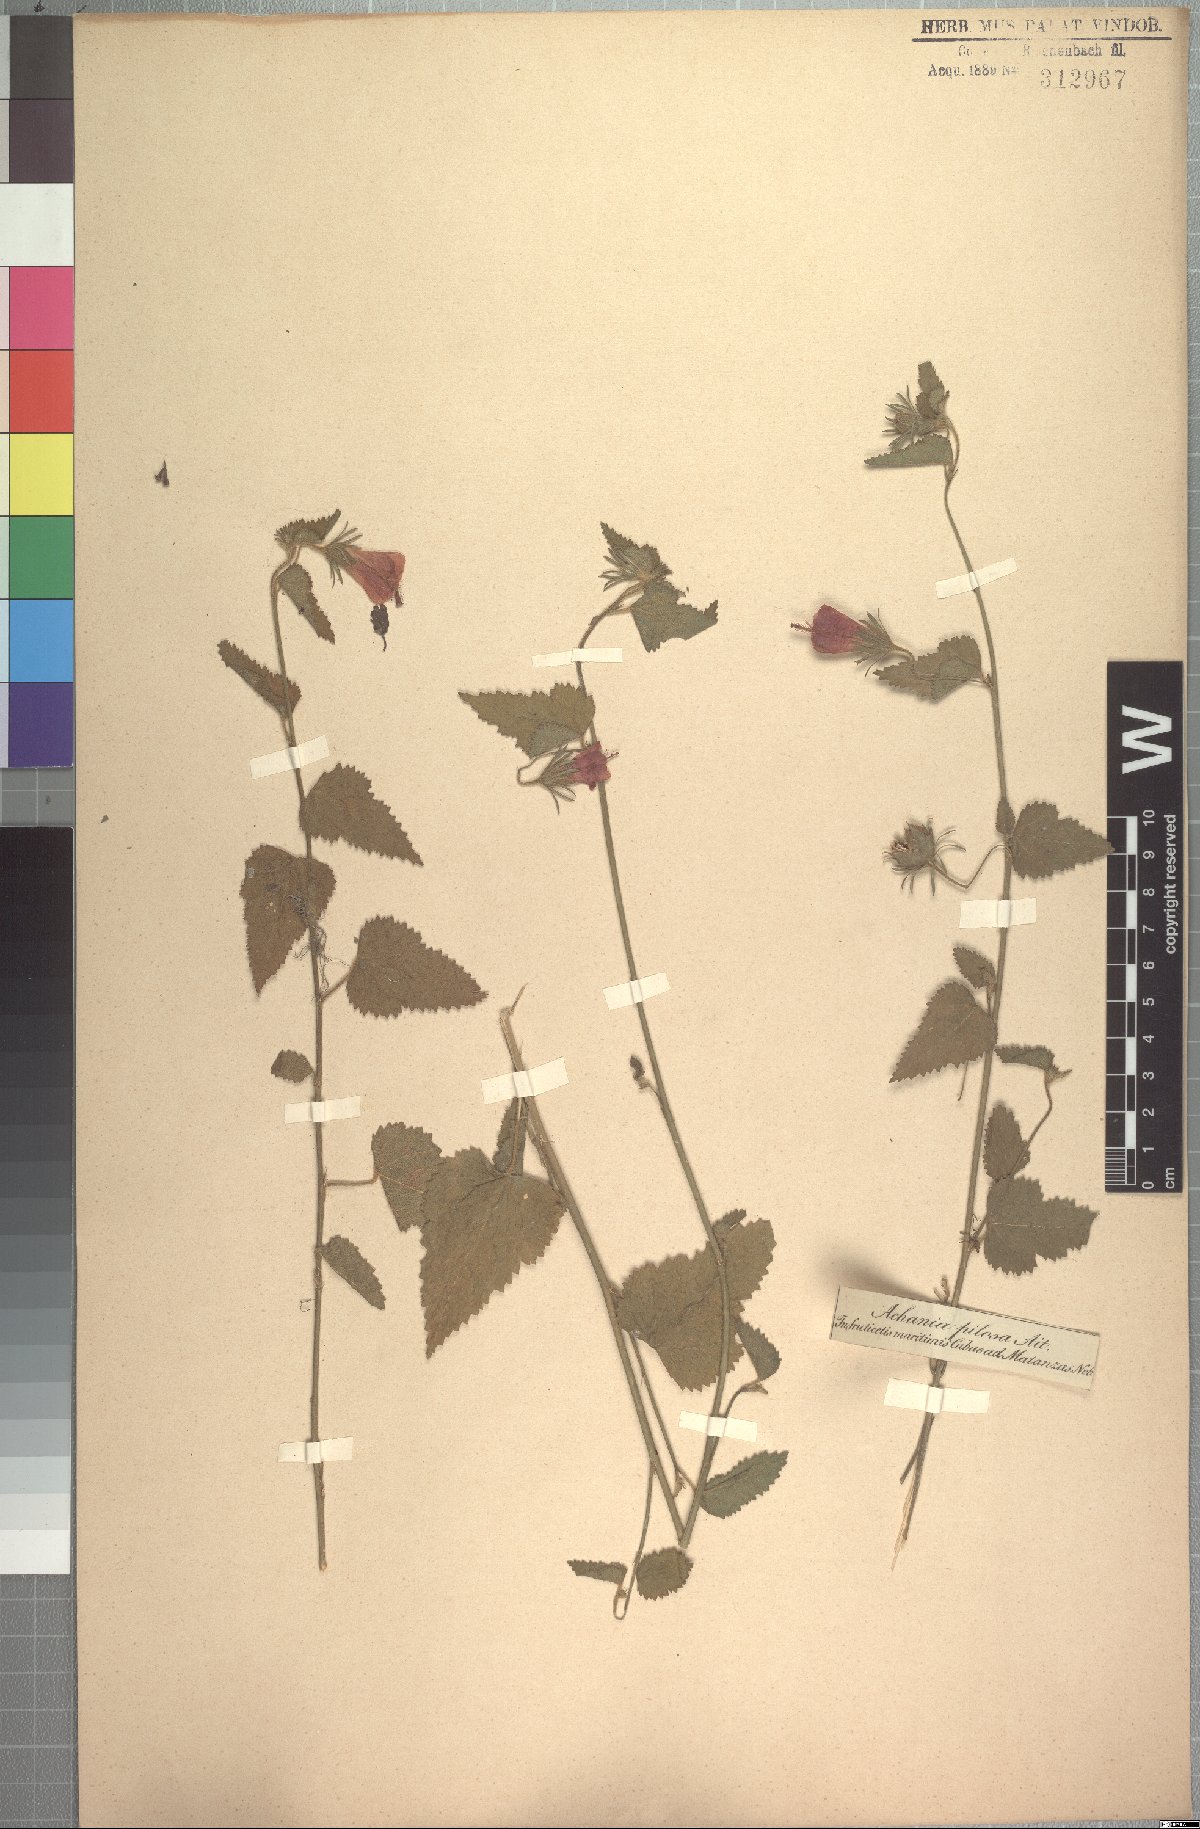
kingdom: Plantae
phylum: Tracheophyta
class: Magnoliopsida
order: Malvales
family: Malvaceae
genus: Malvaviscus
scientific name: Malvaviscus arboreus
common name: Wax mallow
